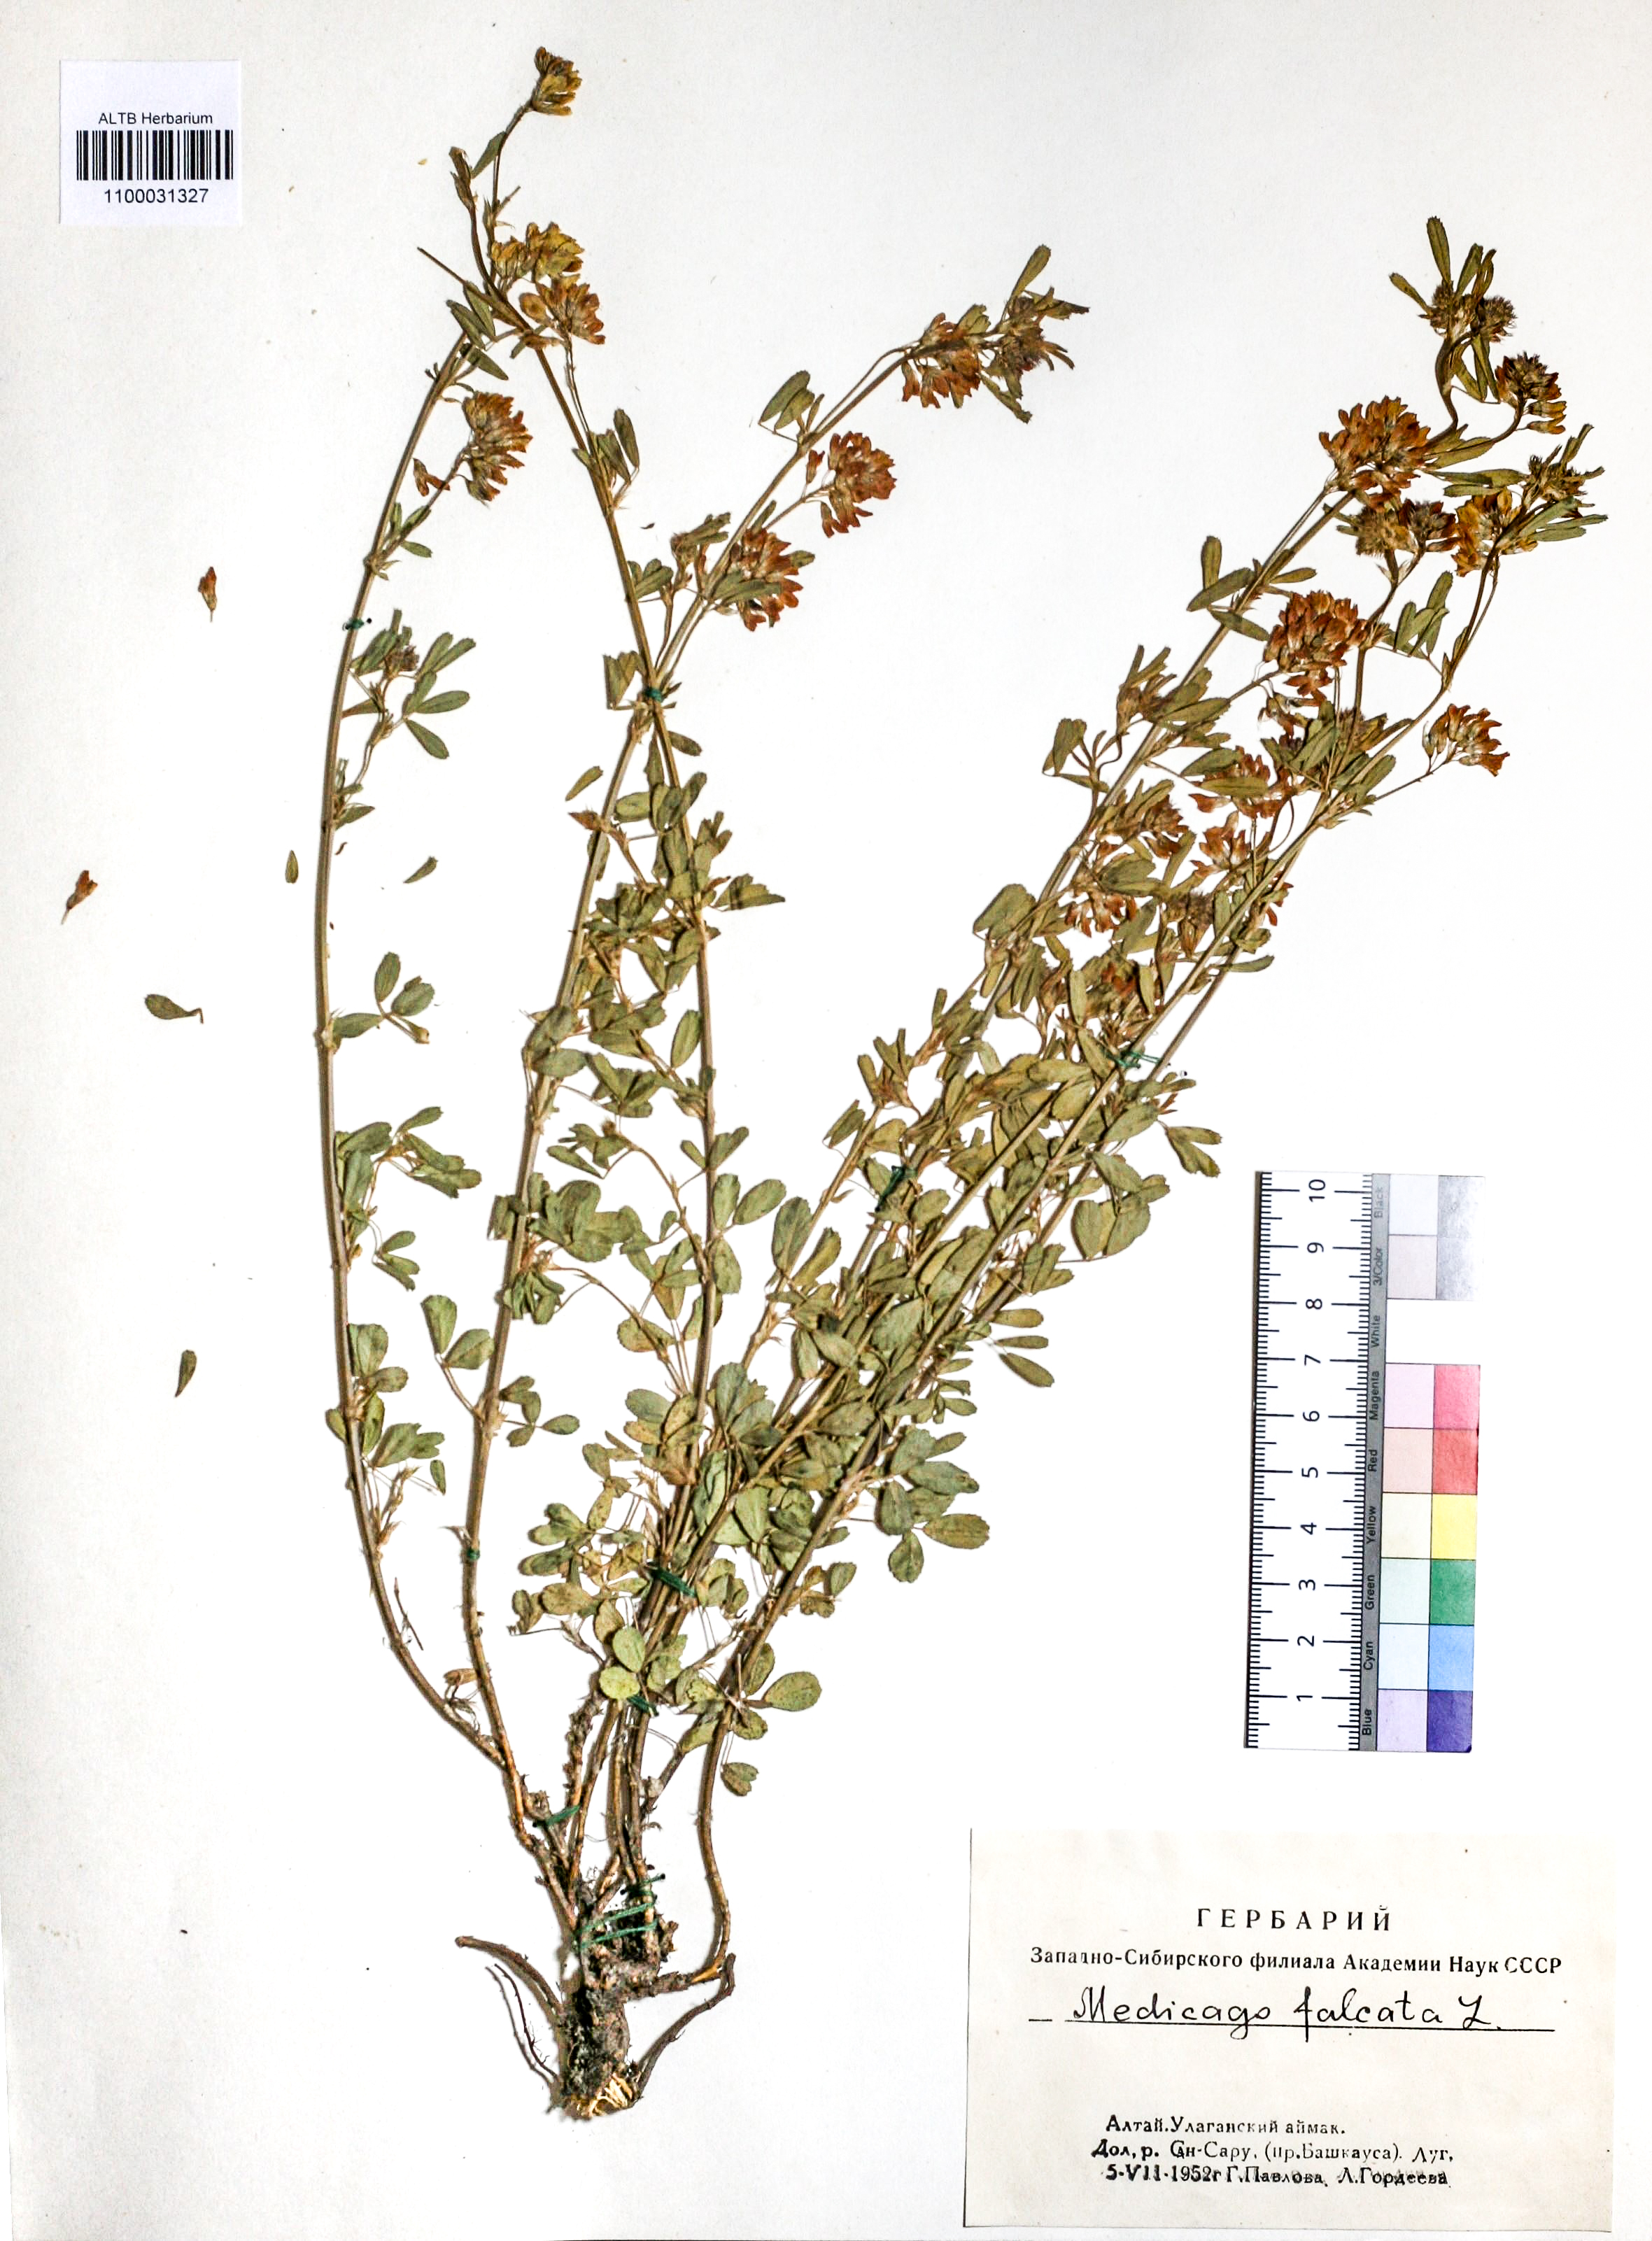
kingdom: Plantae
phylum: Tracheophyta
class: Magnoliopsida
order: Fabales
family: Fabaceae
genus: Medicago
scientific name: Medicago falcata
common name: Sickle medick
